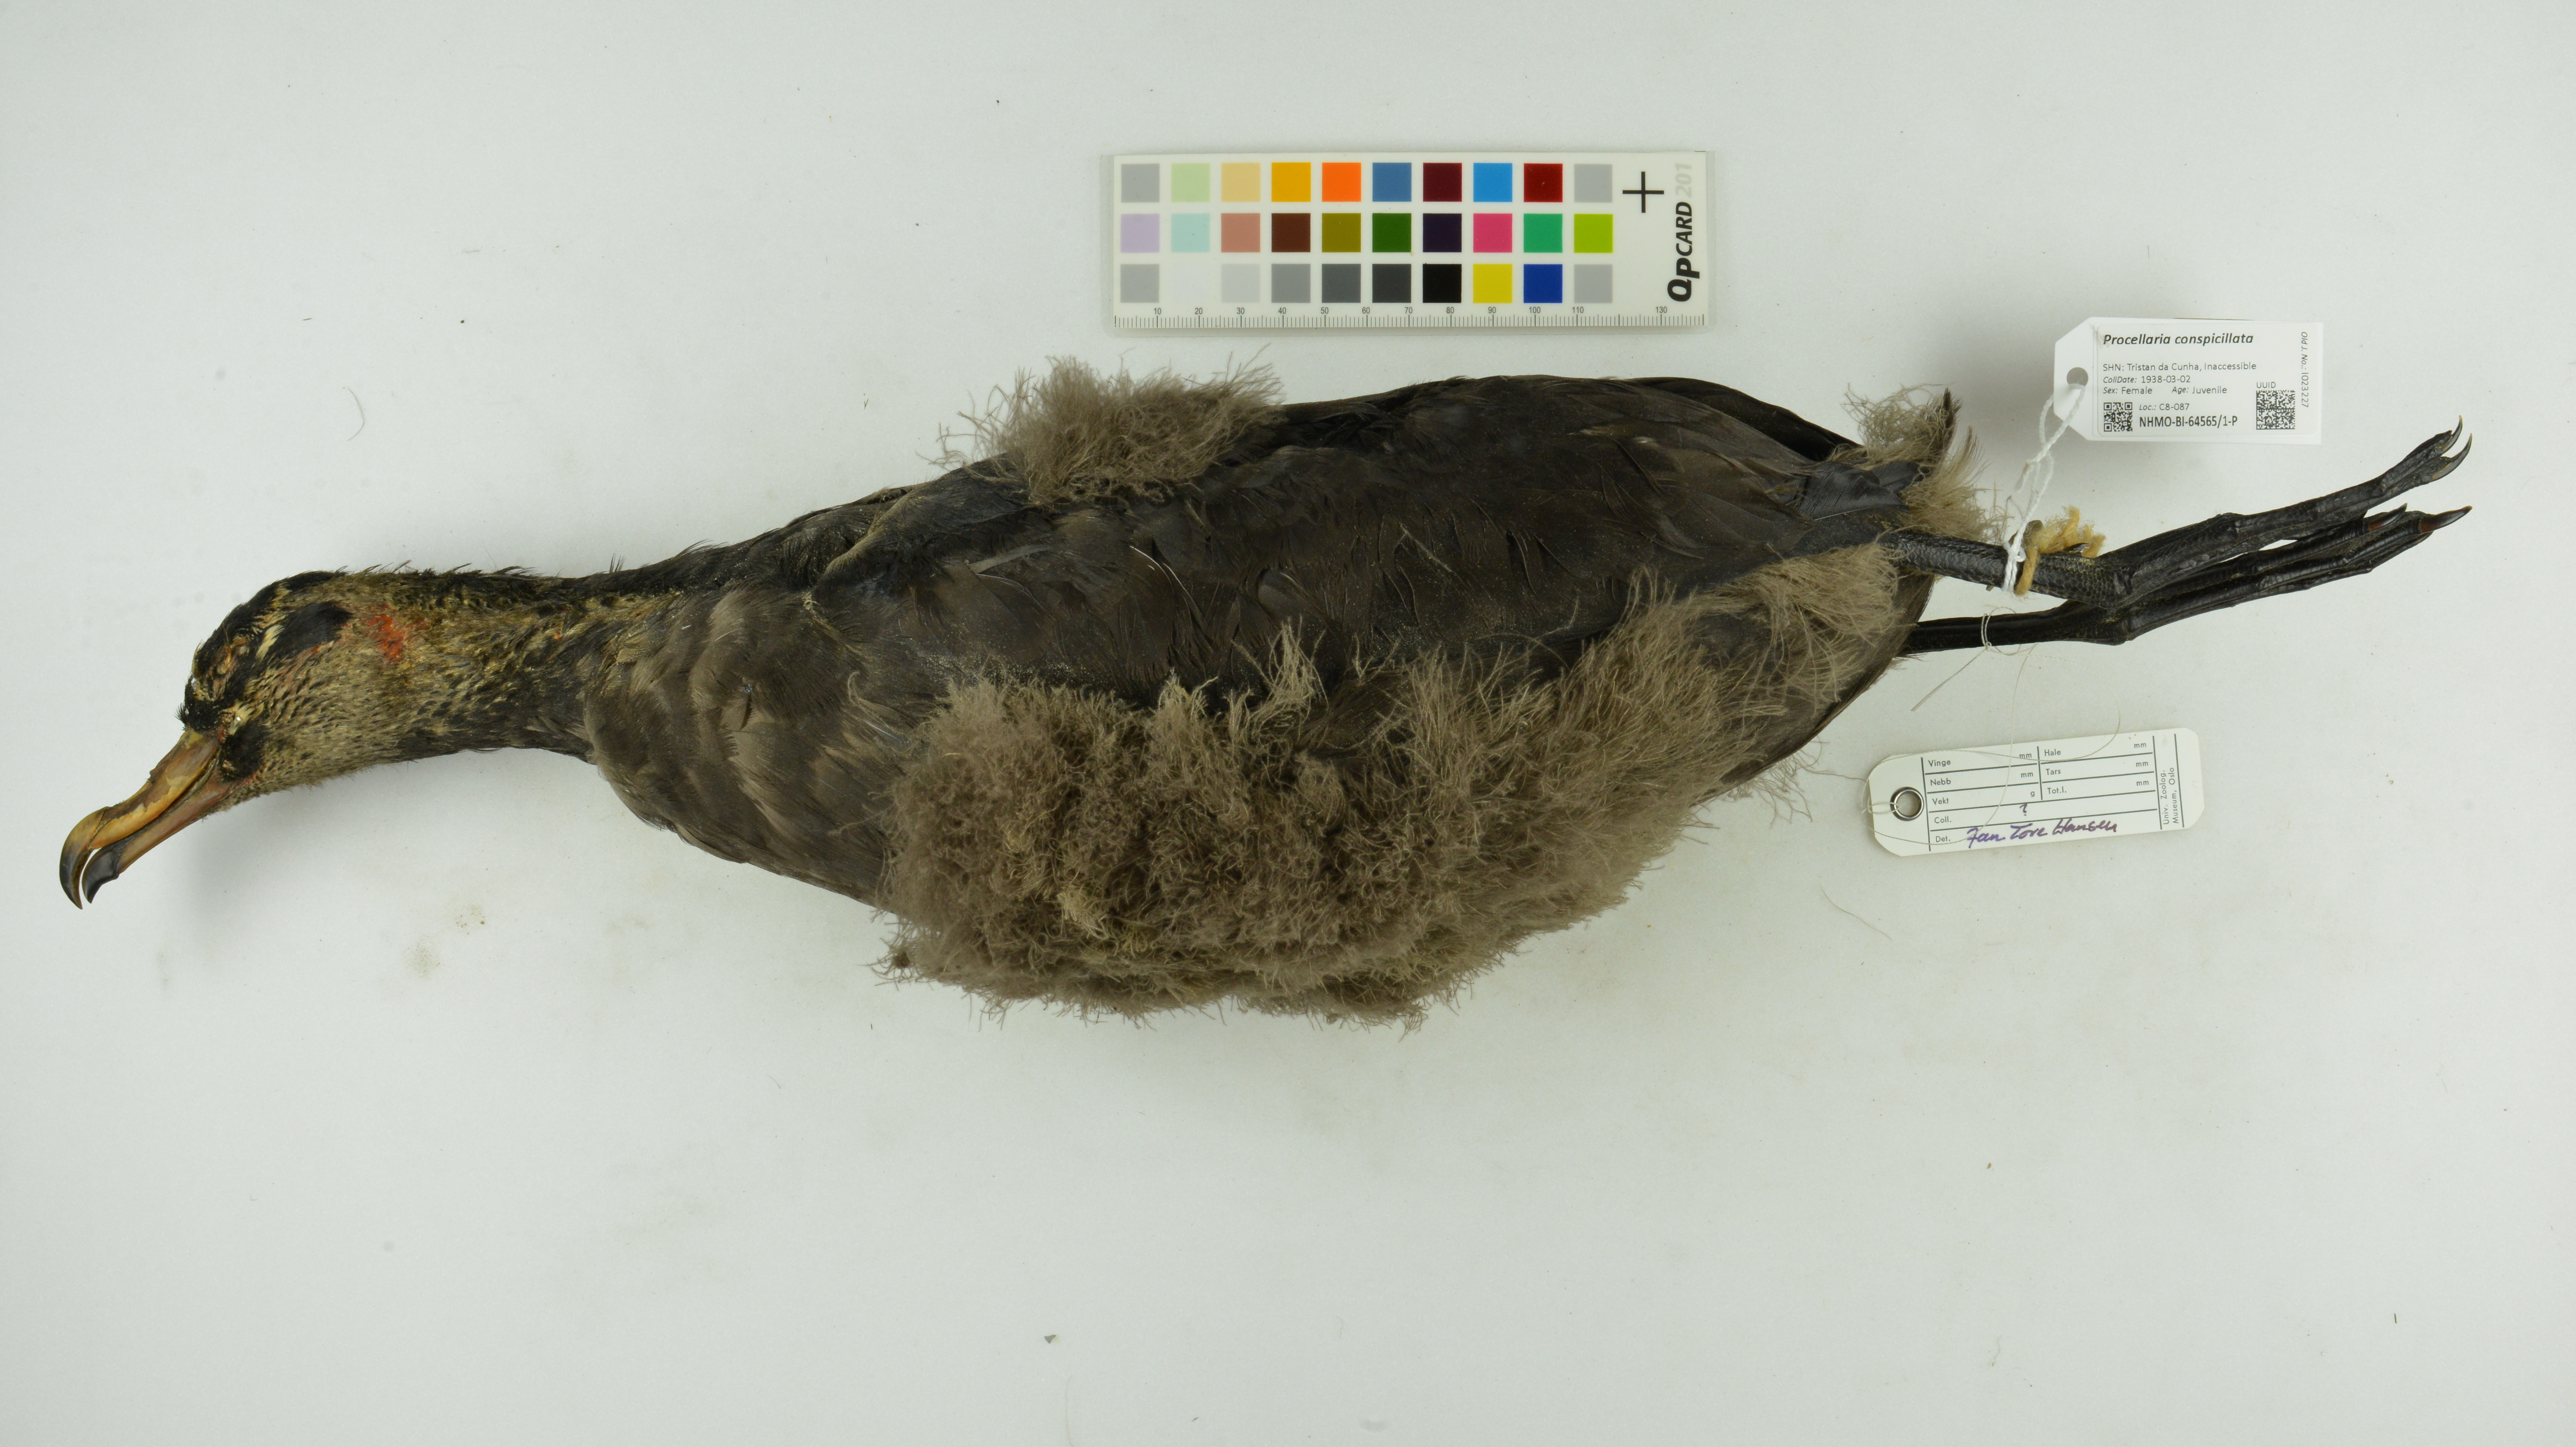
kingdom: Animalia
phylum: Chordata
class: Aves
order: Procellariiformes
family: Procellariidae
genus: Procellaria
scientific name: Procellaria conspicillata
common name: Spectacled petrel
